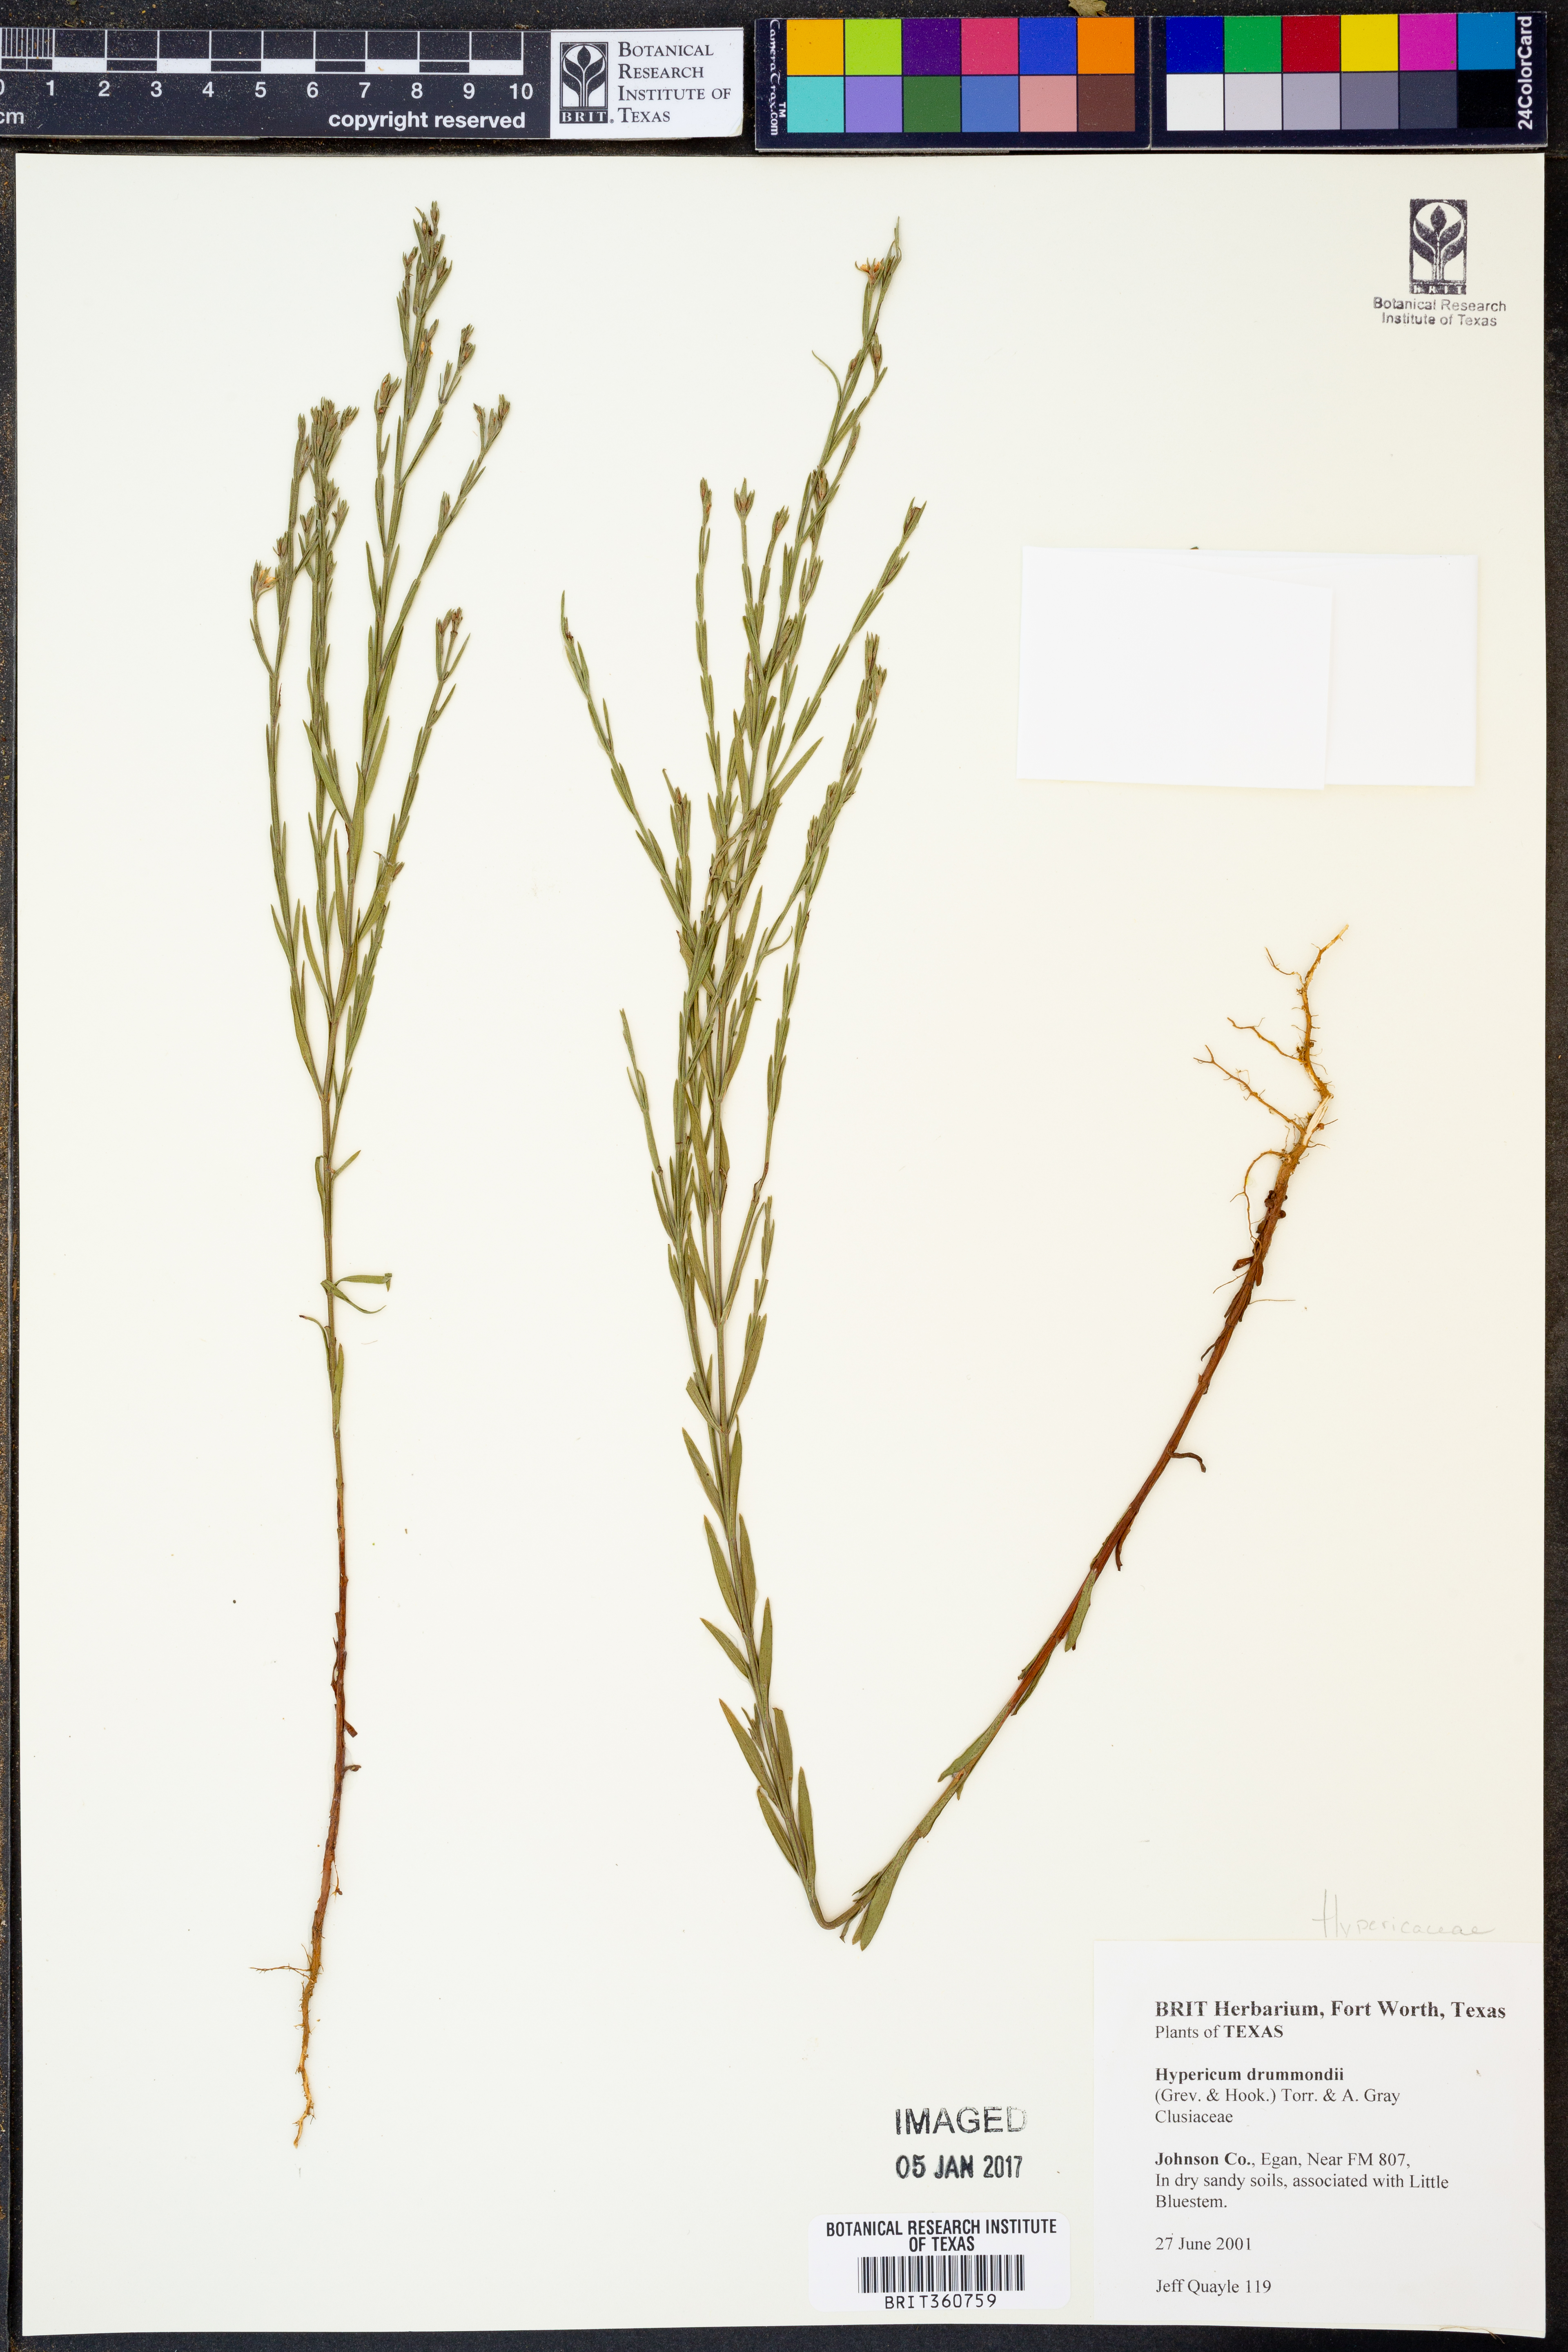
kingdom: Plantae
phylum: Tracheophyta
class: Magnoliopsida
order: Malpighiales
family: Hypericaceae
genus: Hypericum
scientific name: Hypericum drummondii
